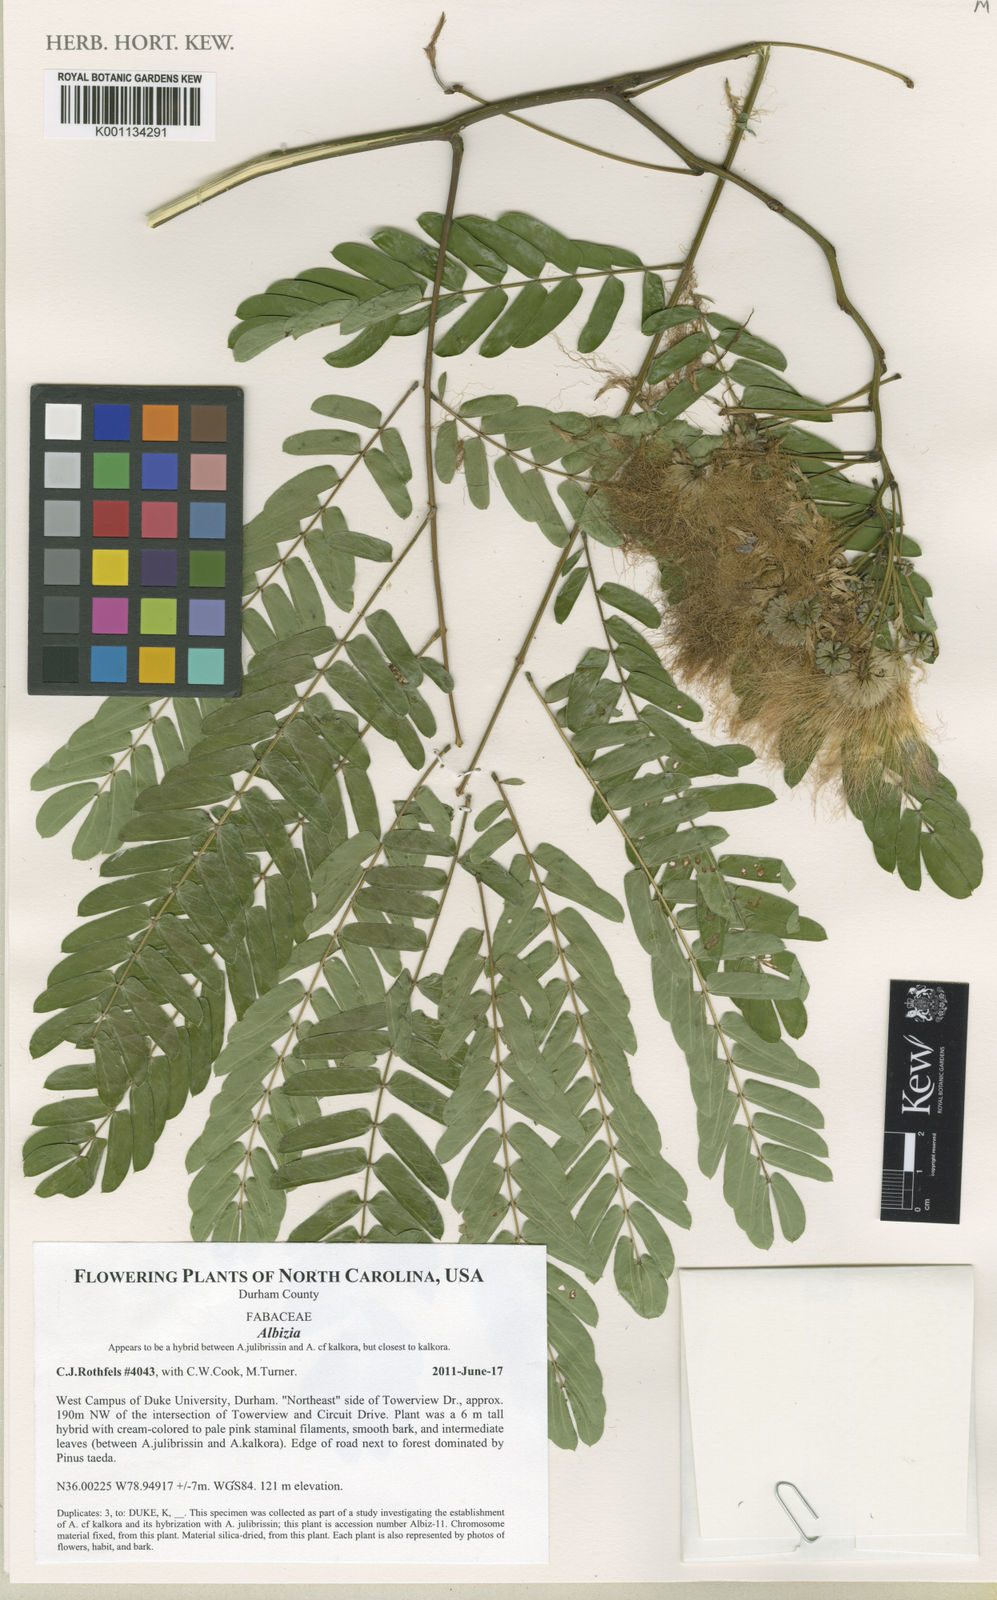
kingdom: Plantae
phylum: Tracheophyta
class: Magnoliopsida
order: Fabales
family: Fabaceae
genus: Albizia
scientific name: Albizia
